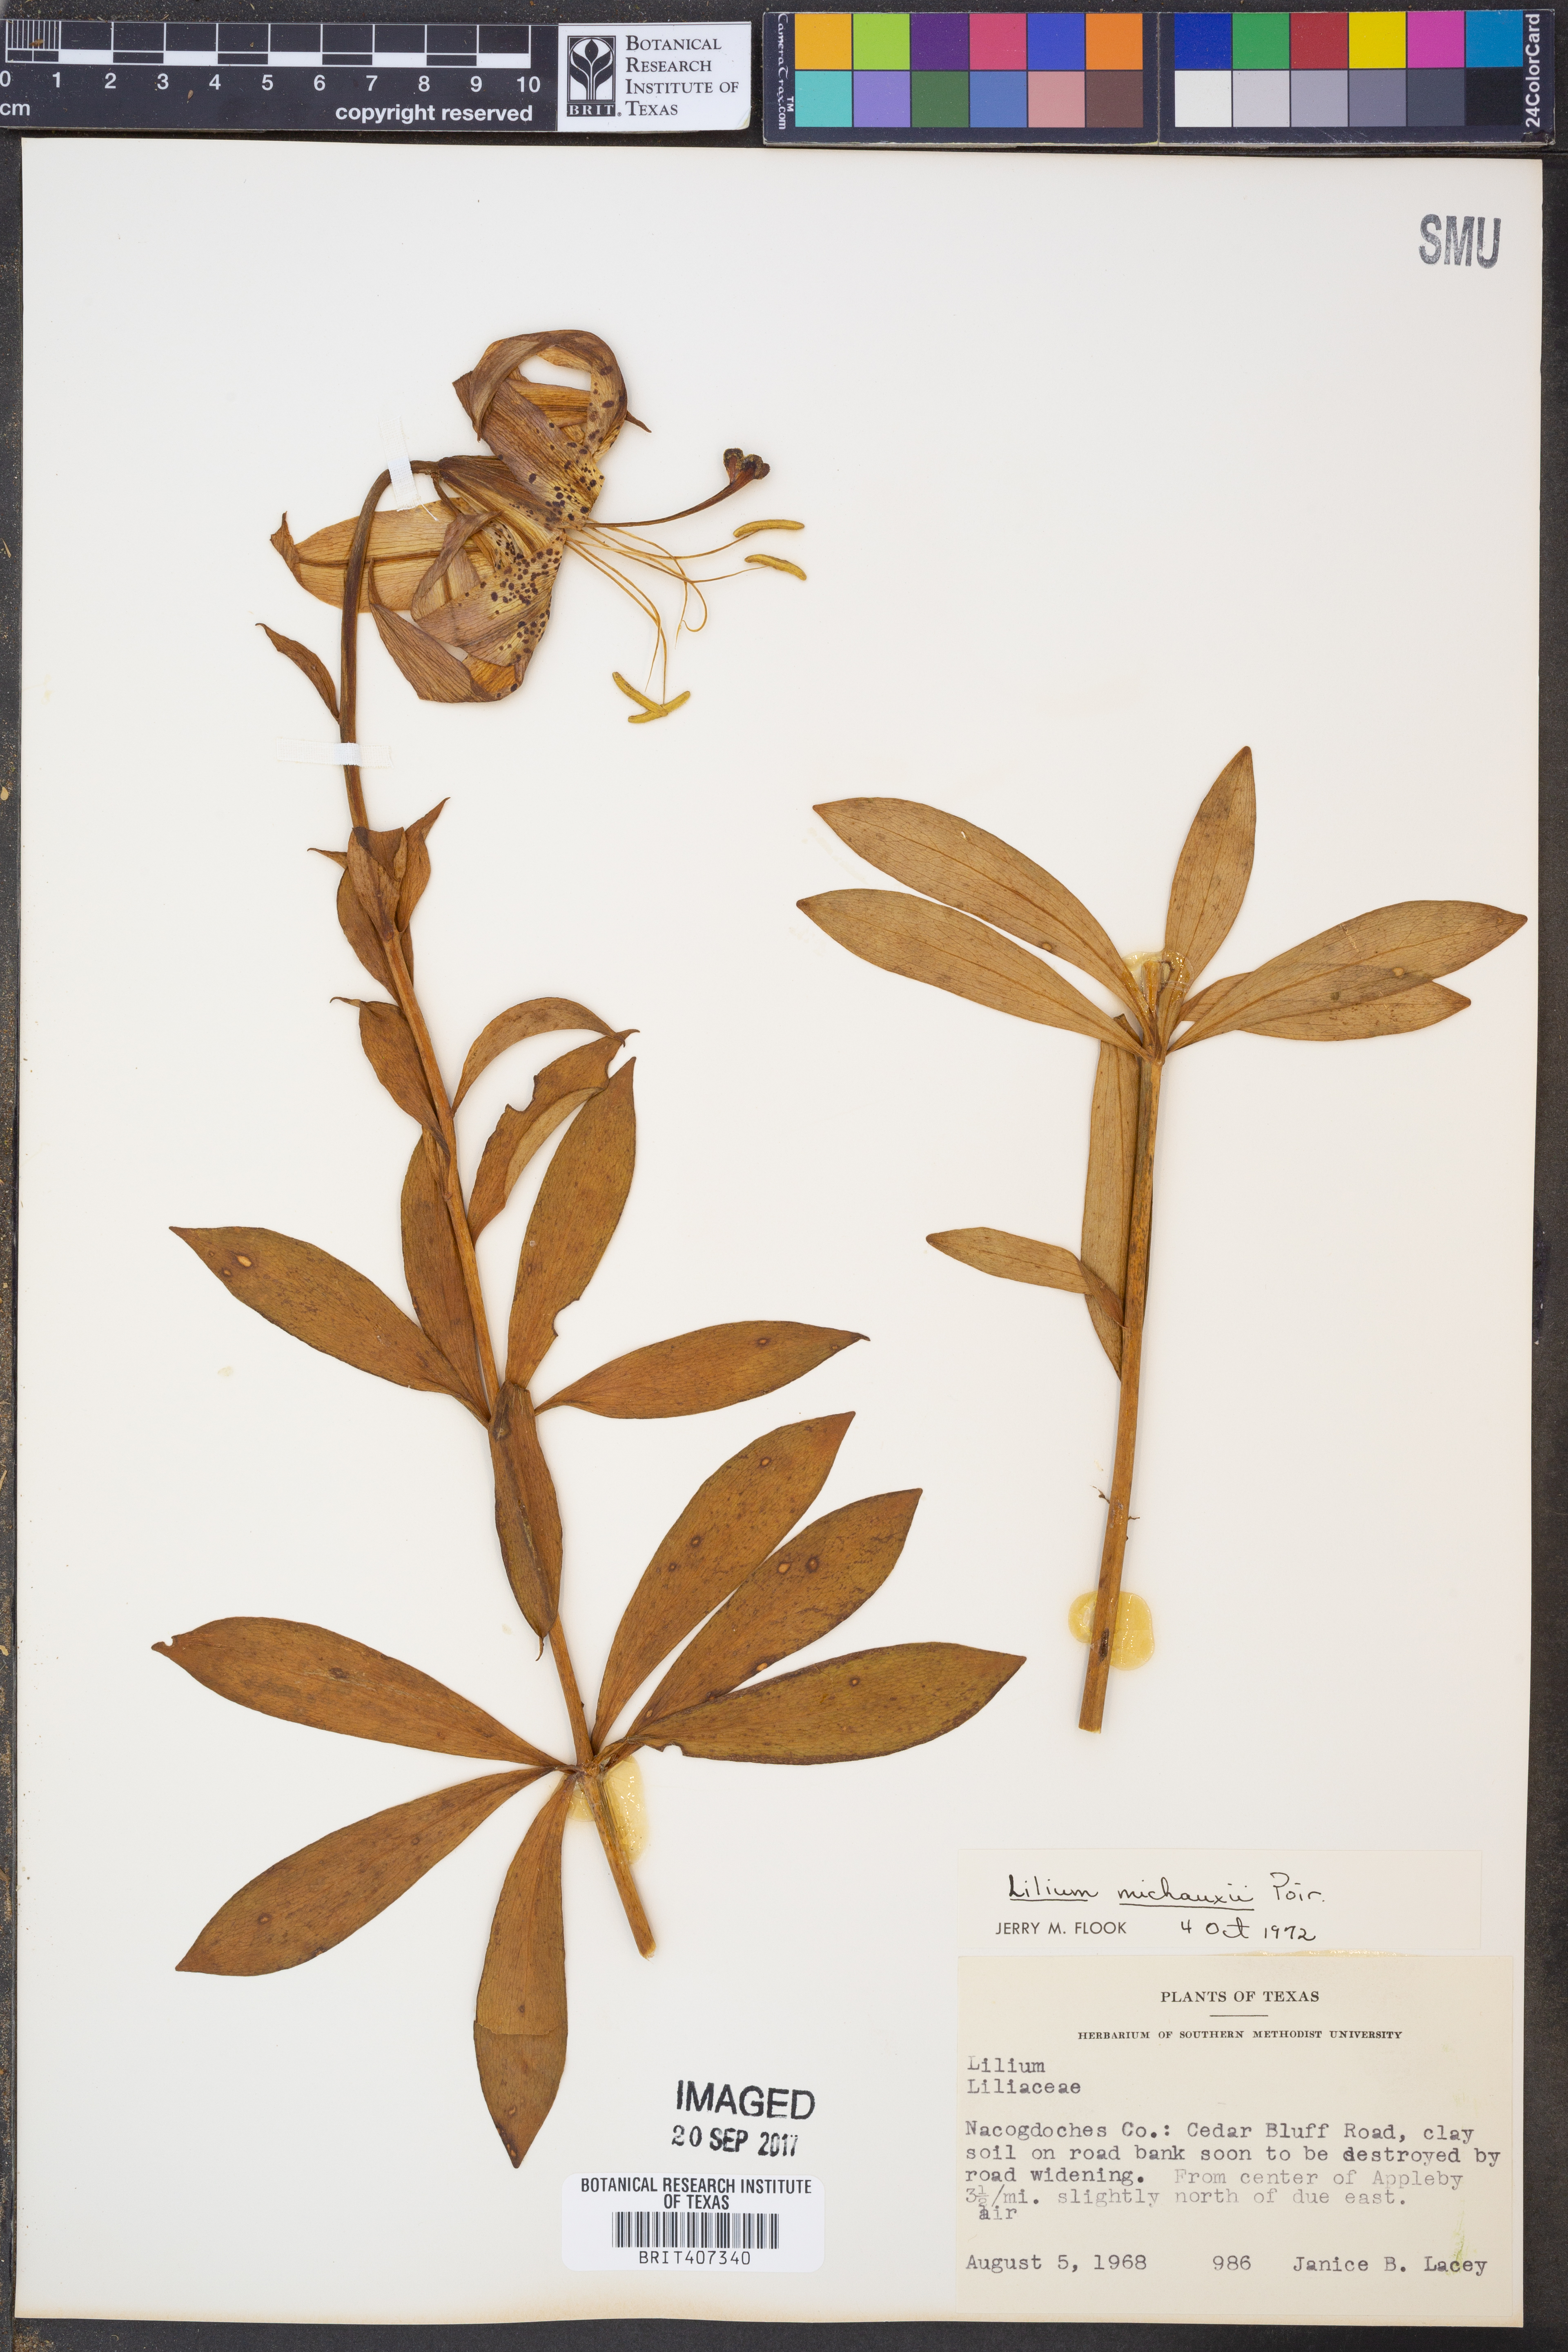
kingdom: Plantae
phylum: Tracheophyta
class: Liliopsida
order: Liliales
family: Liliaceae
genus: Lilium
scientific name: Lilium michauxii
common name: Carolina lily
